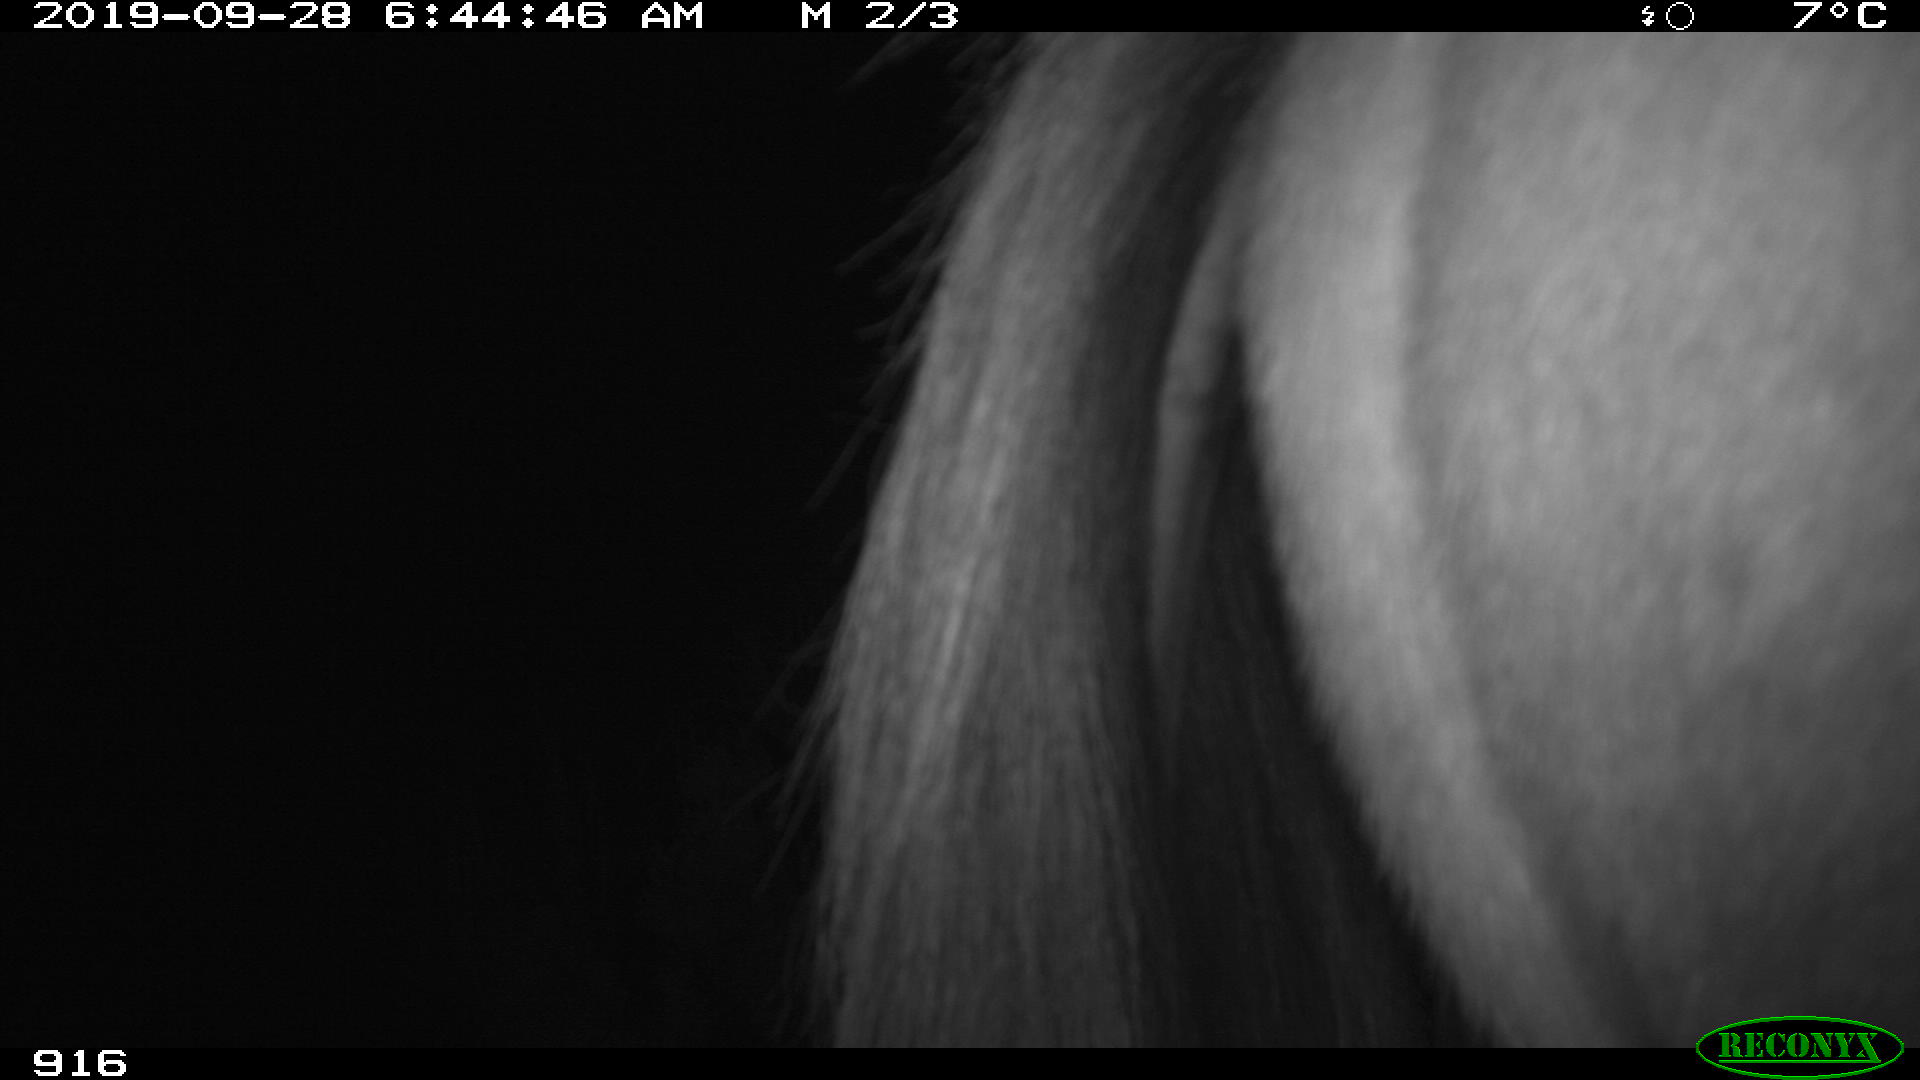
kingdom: Animalia
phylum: Chordata
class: Mammalia
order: Perissodactyla
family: Equidae
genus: Equus
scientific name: Equus caballus
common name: Horse
